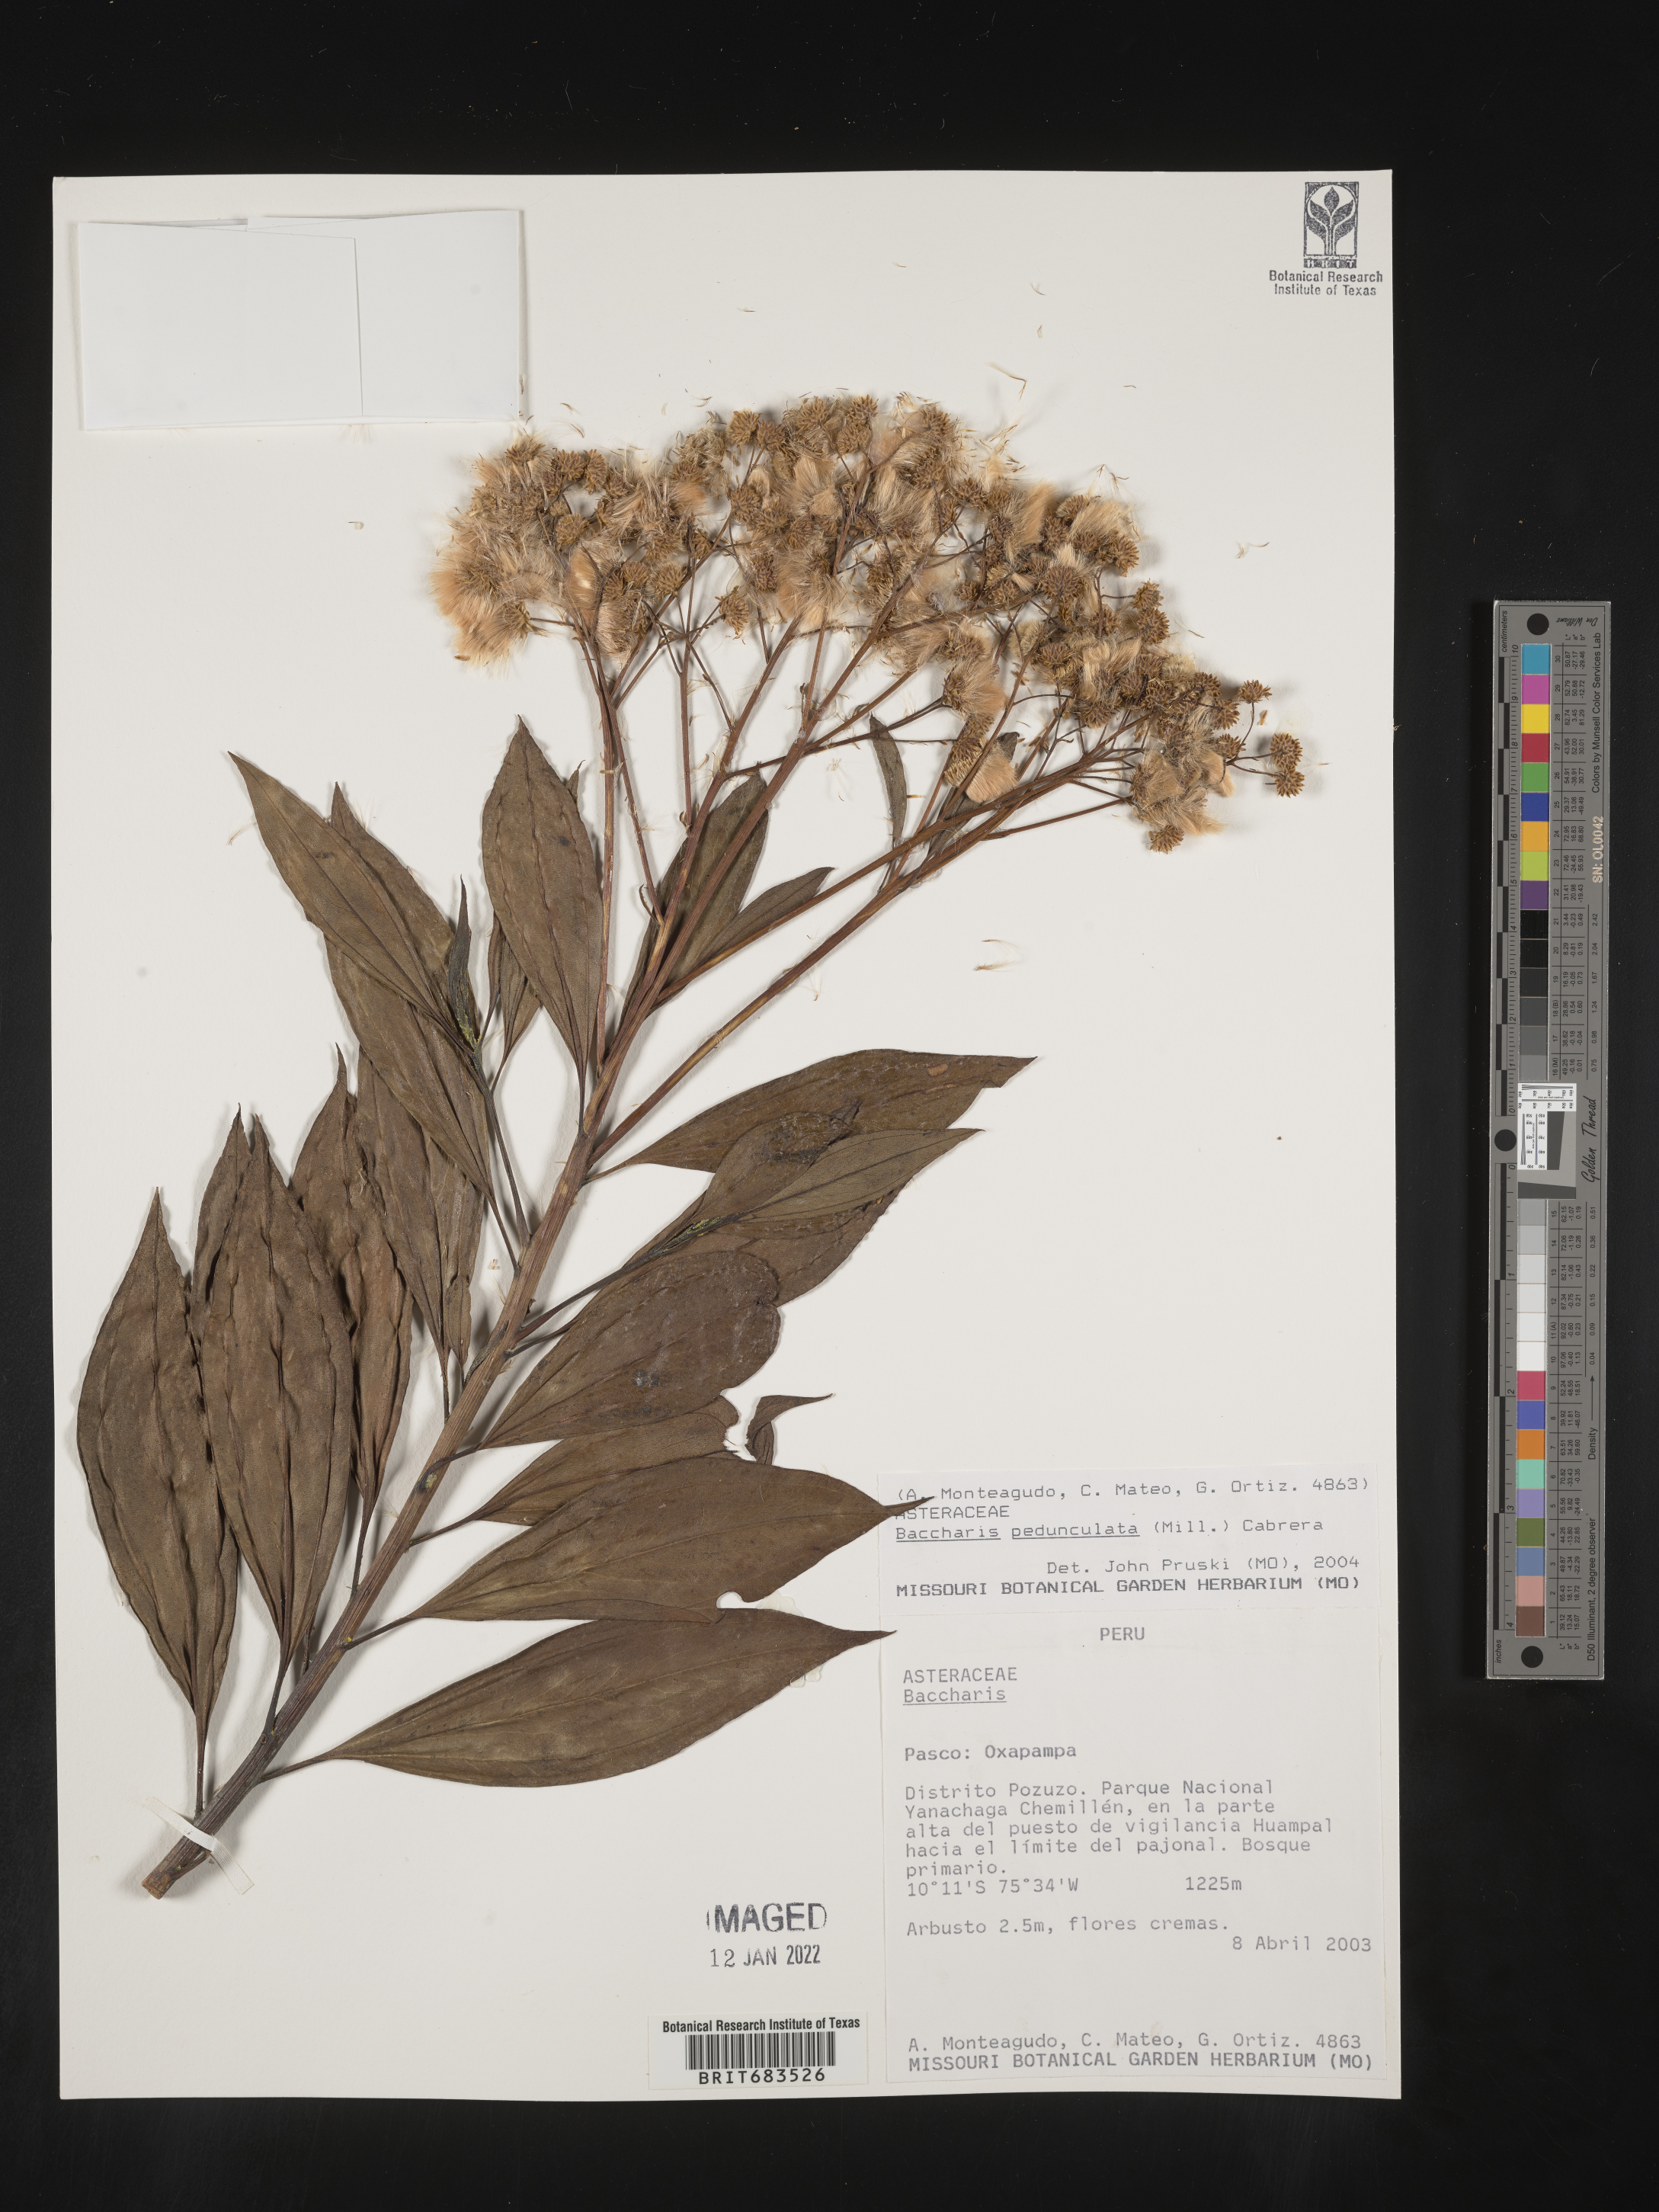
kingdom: Plantae
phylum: Tracheophyta
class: Magnoliopsida
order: Asterales
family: Asteraceae
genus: Baccharis
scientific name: Baccharis
